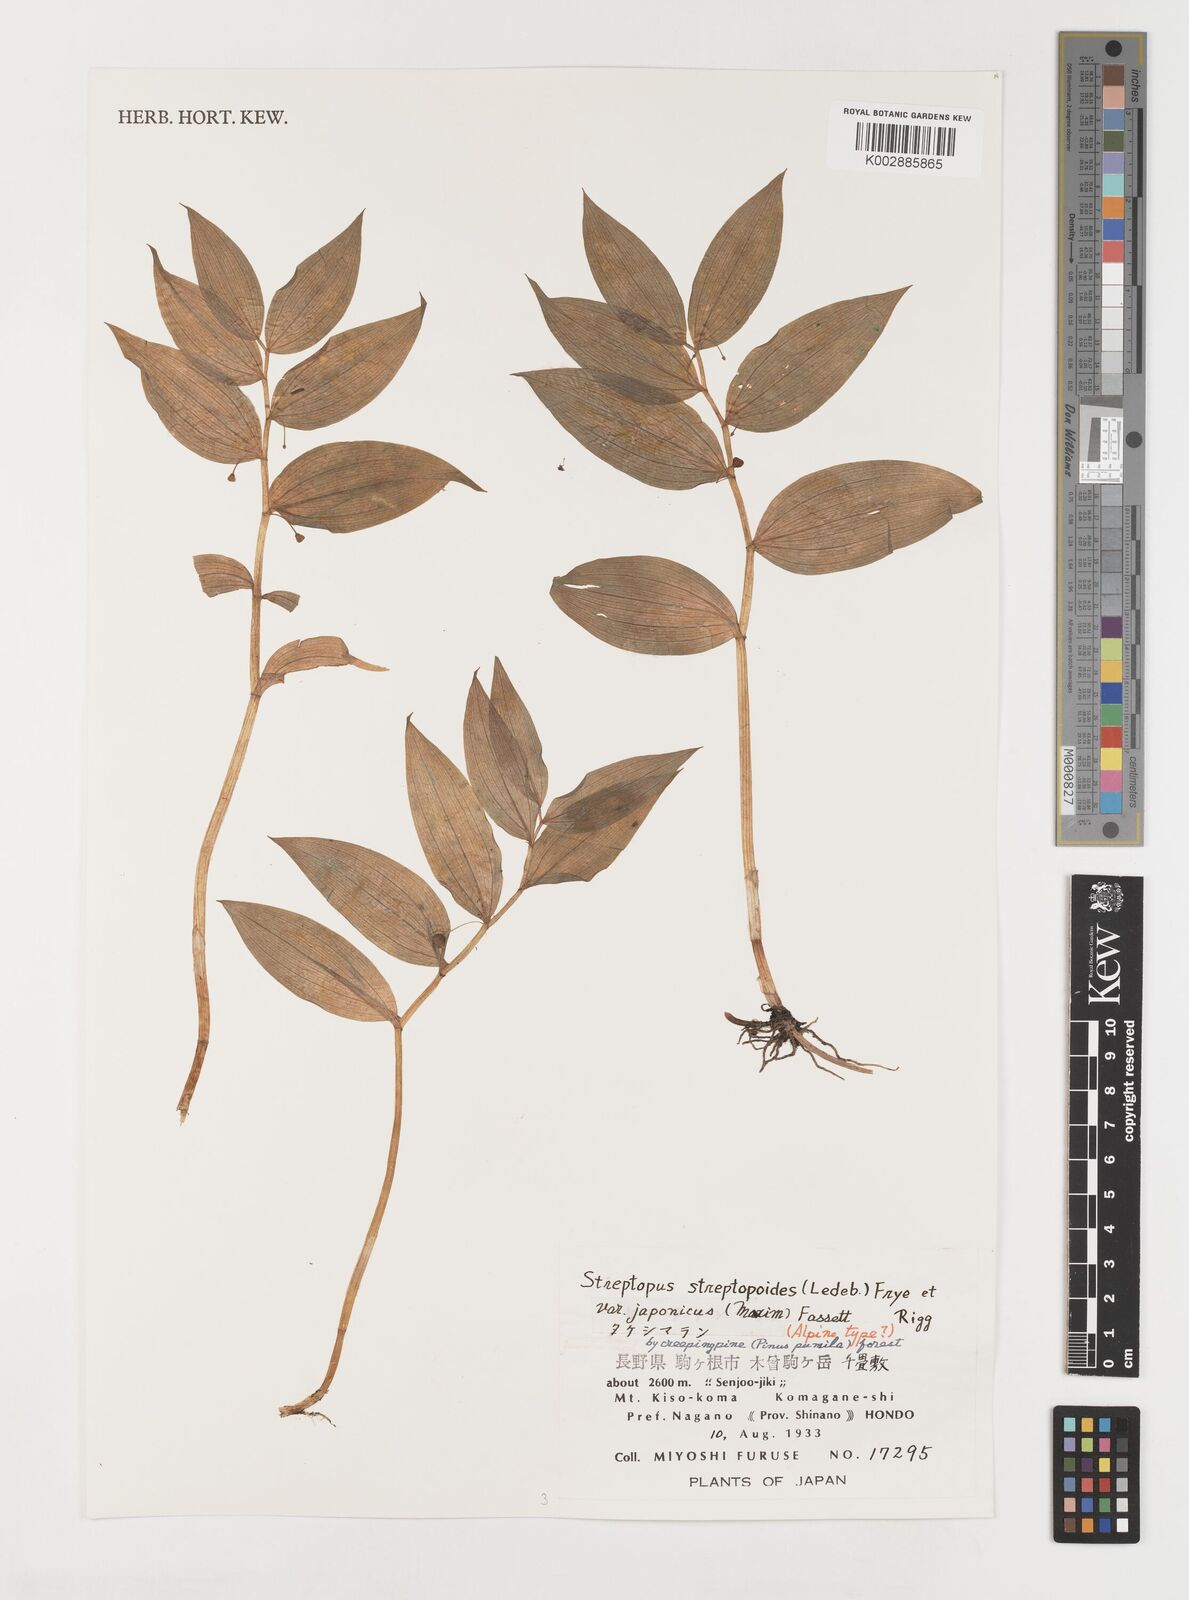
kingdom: Plantae
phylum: Tracheophyta
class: Liliopsida
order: Liliales
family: Liliaceae
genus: Streptopus
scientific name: Streptopus streptopoides
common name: Small twisted-stalk
